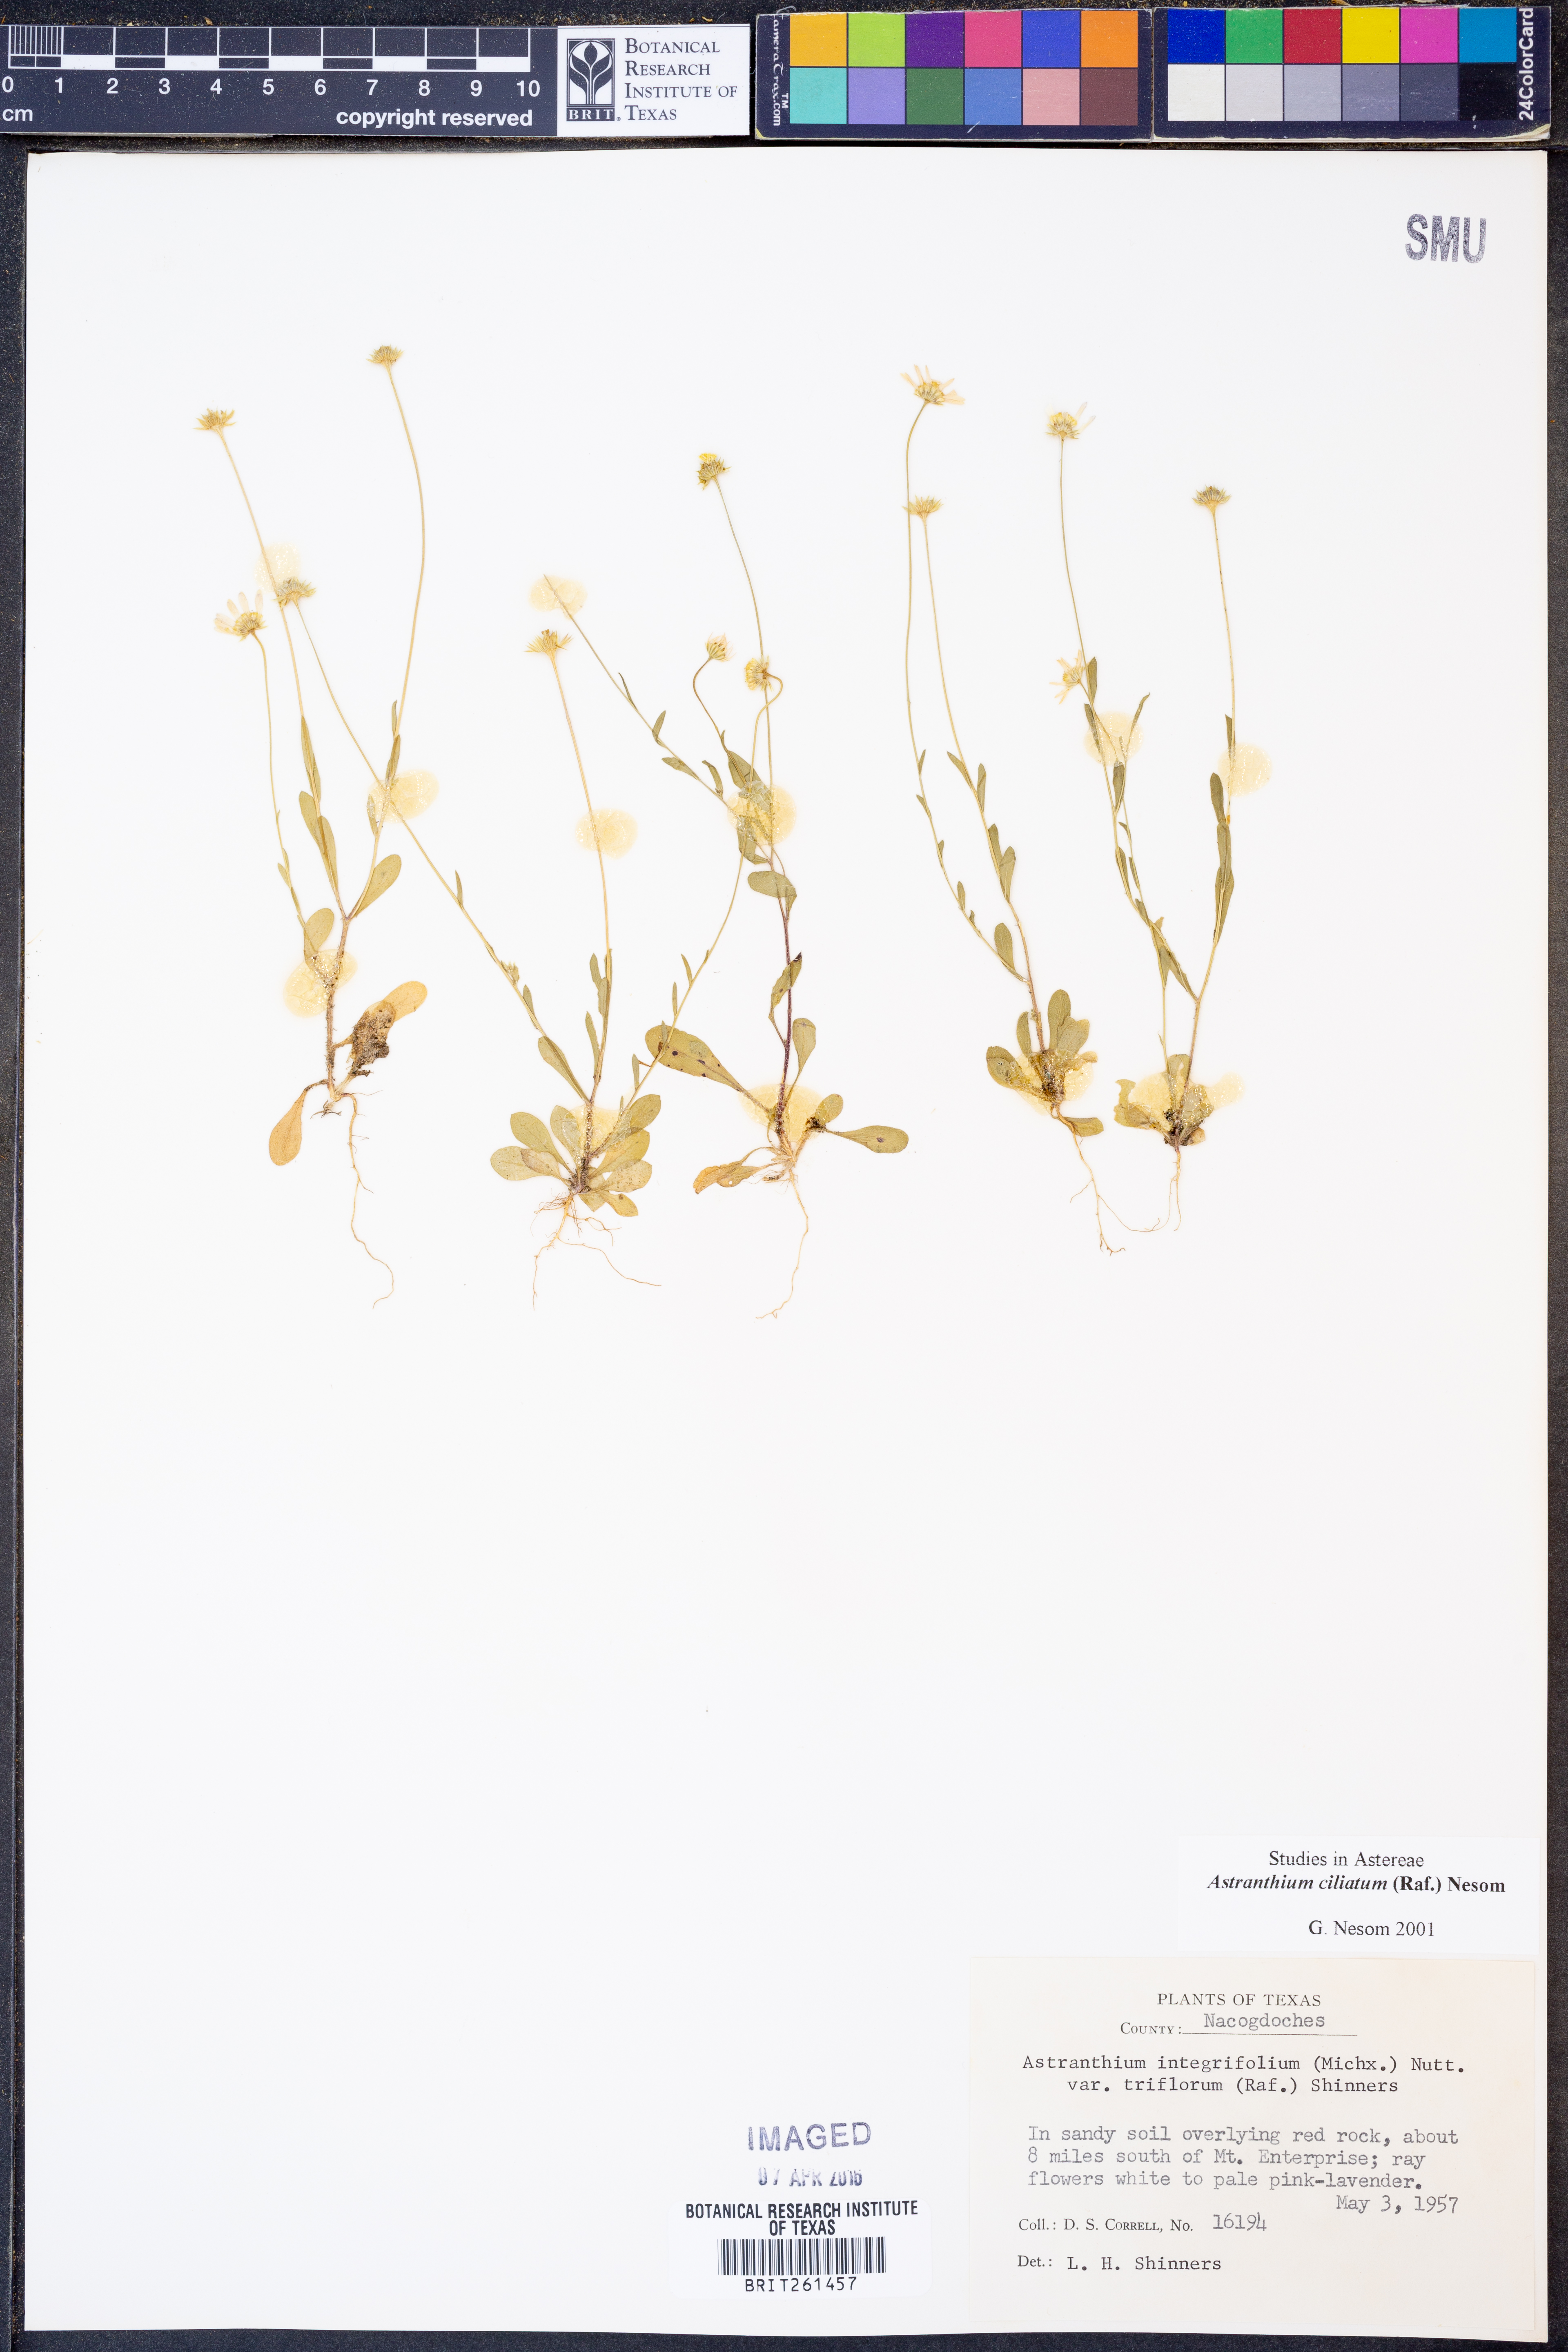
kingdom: Plantae
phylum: Tracheophyta
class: Magnoliopsida
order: Asterales
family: Asteraceae
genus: Astranthium
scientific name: Astranthium ciliatum
